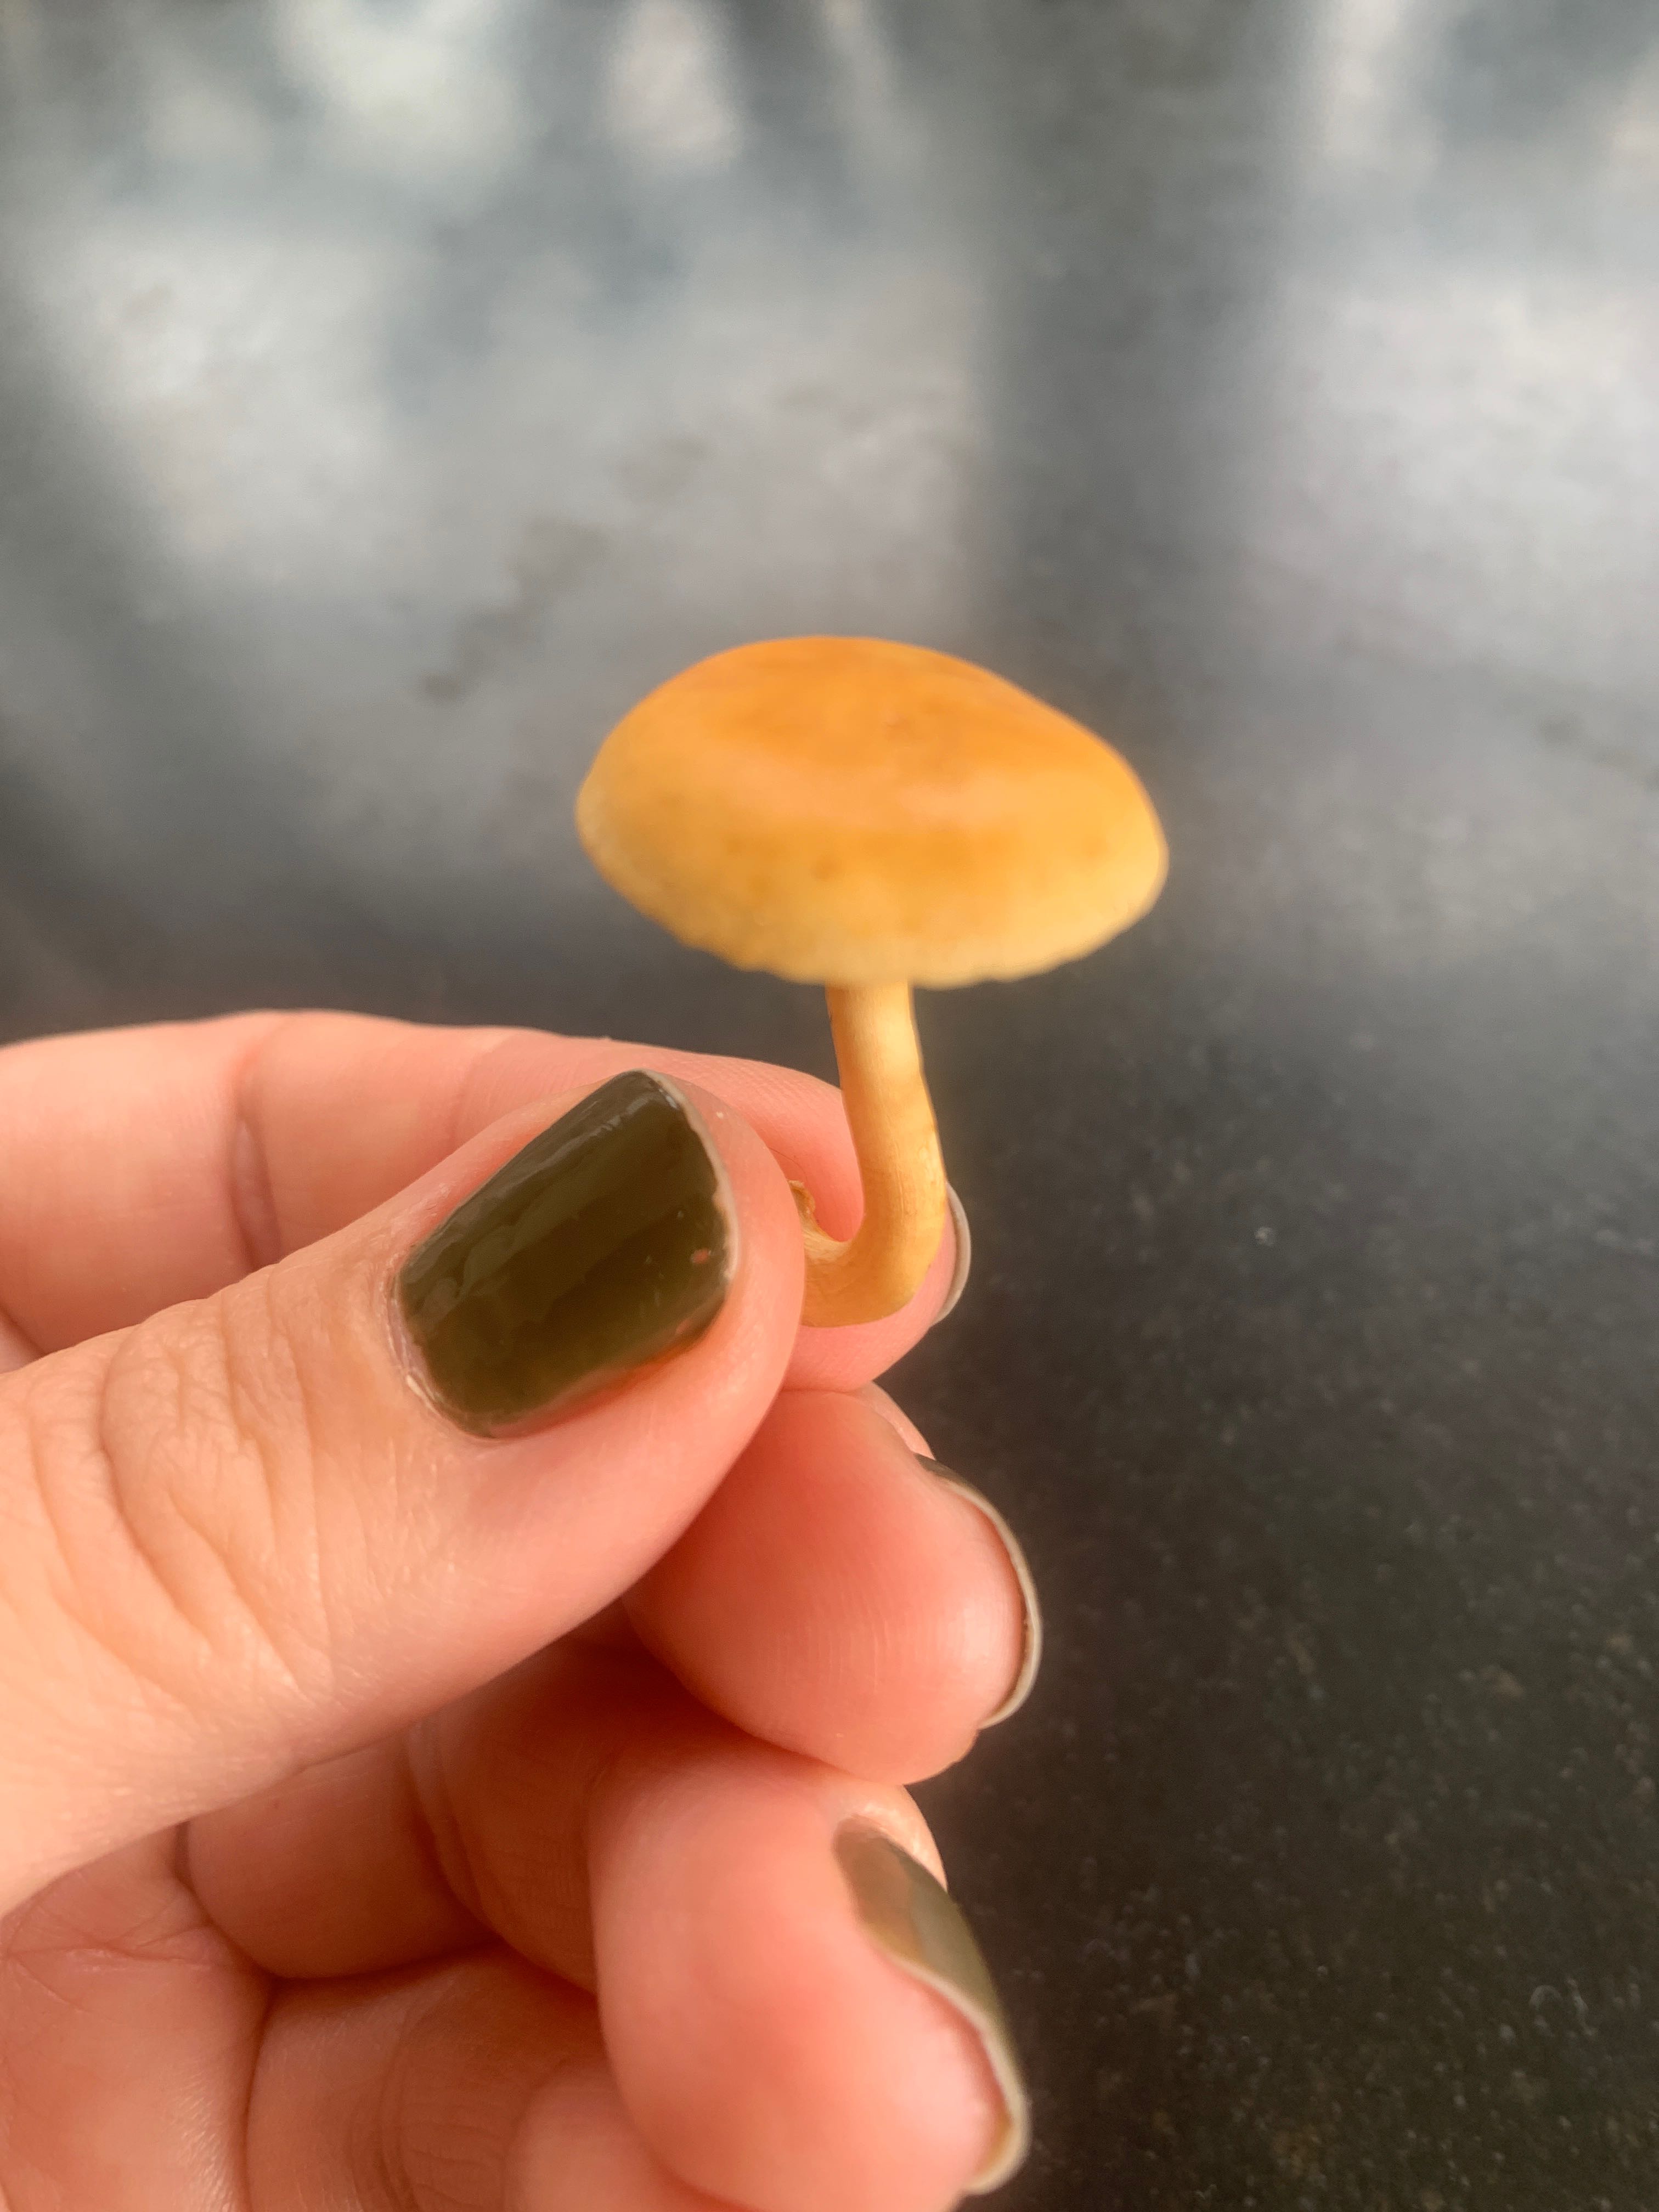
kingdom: Fungi
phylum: Basidiomycota
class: Agaricomycetes
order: Agaricales
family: Strophariaceae
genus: Agrocybe
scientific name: Agrocybe pediades
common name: almindelig agerhat
